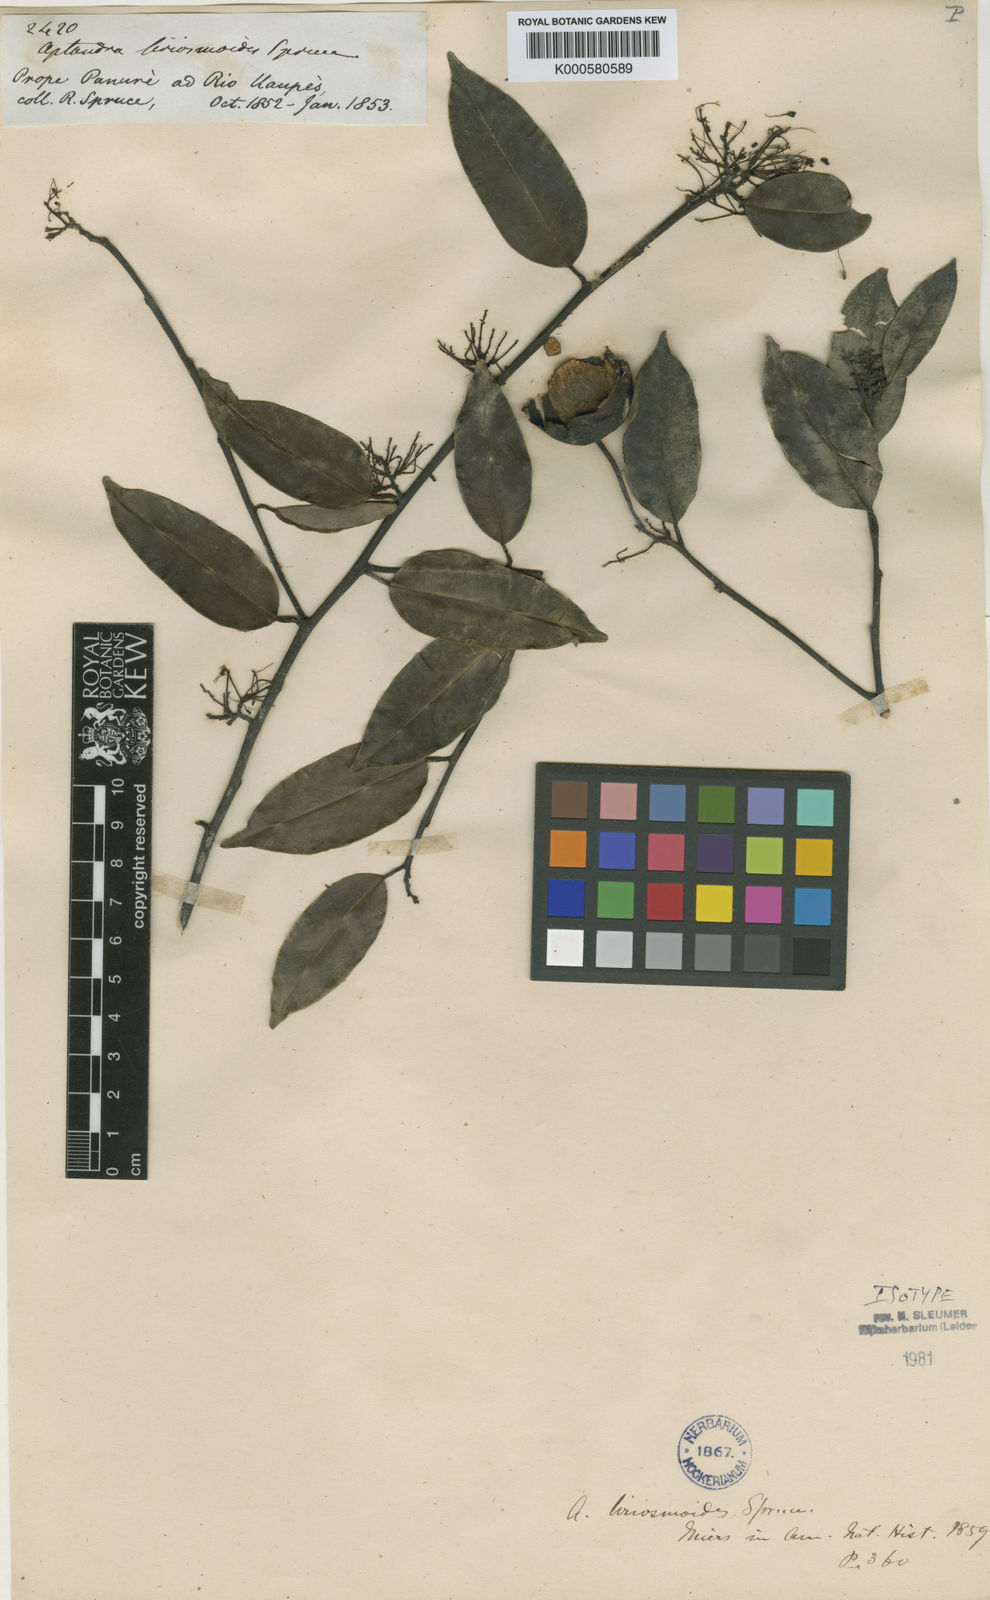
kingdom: Plantae
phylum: Tracheophyta
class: Magnoliopsida
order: Santalales
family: Aptandraceae
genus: Aptandra
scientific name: Aptandra liriosmoides
